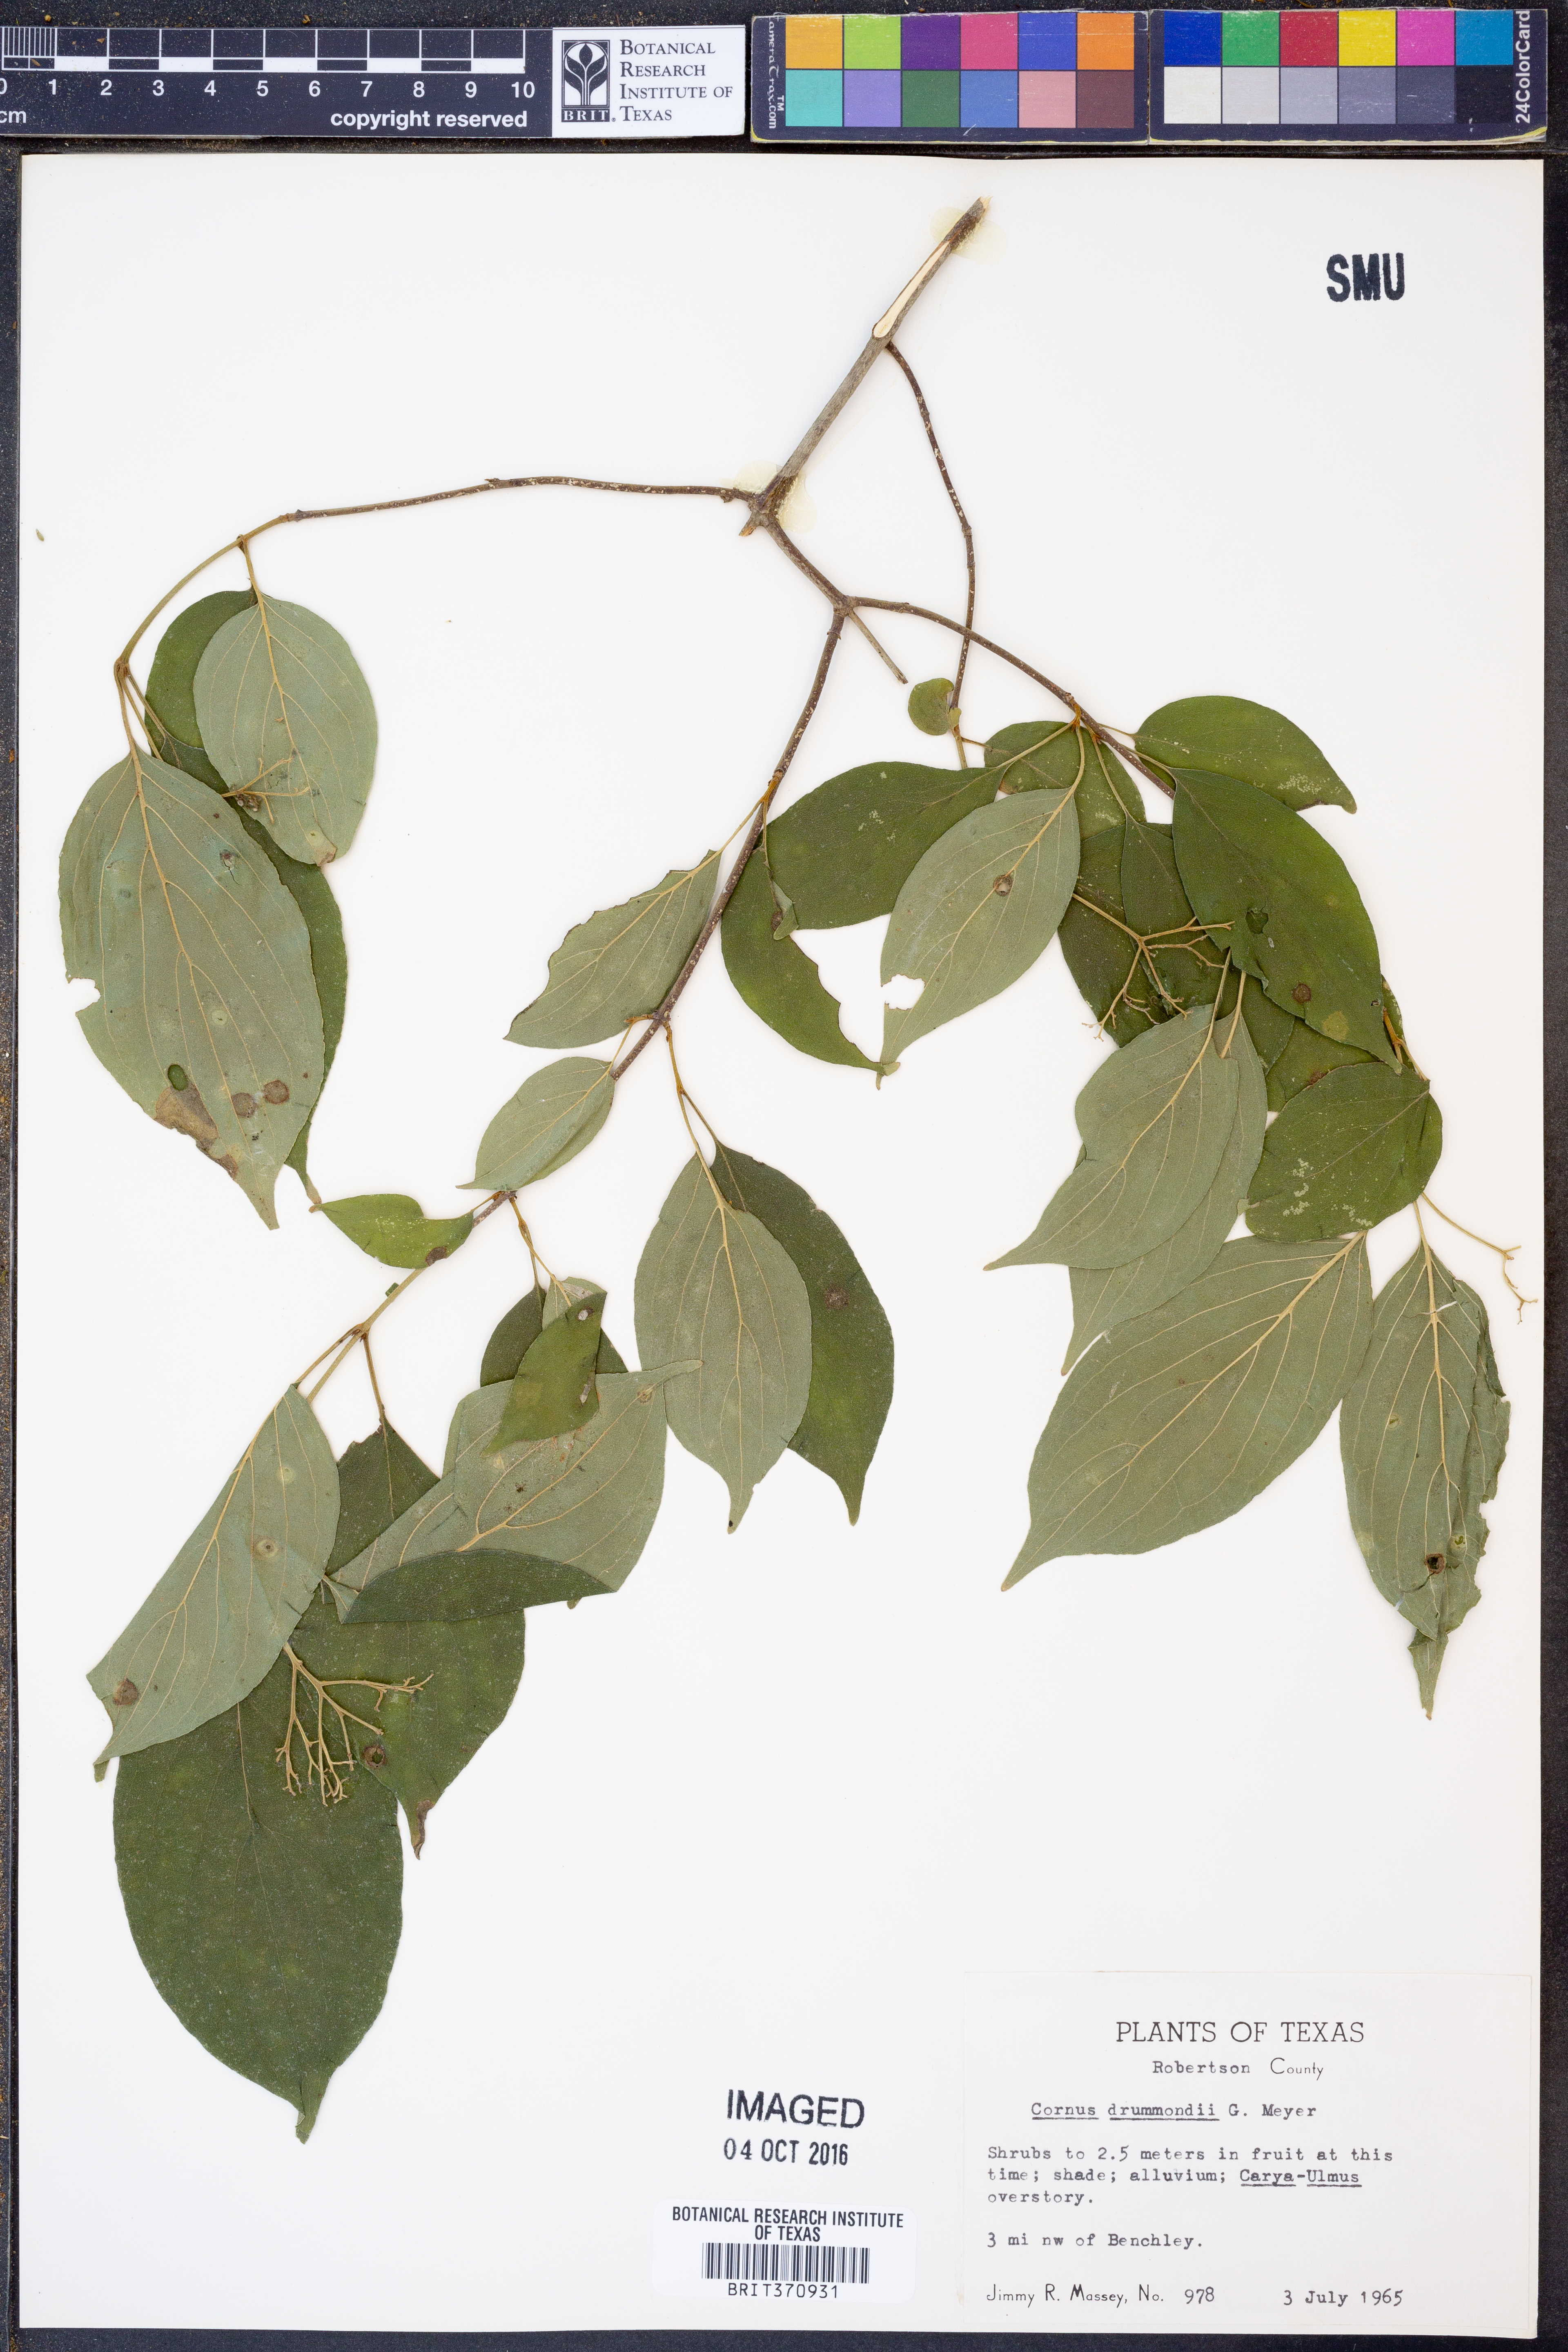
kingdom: Plantae
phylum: Tracheophyta
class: Magnoliopsida
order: Cornales
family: Cornaceae
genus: Cornus
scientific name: Cornus drummondii
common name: Rough-leaf dogwood
